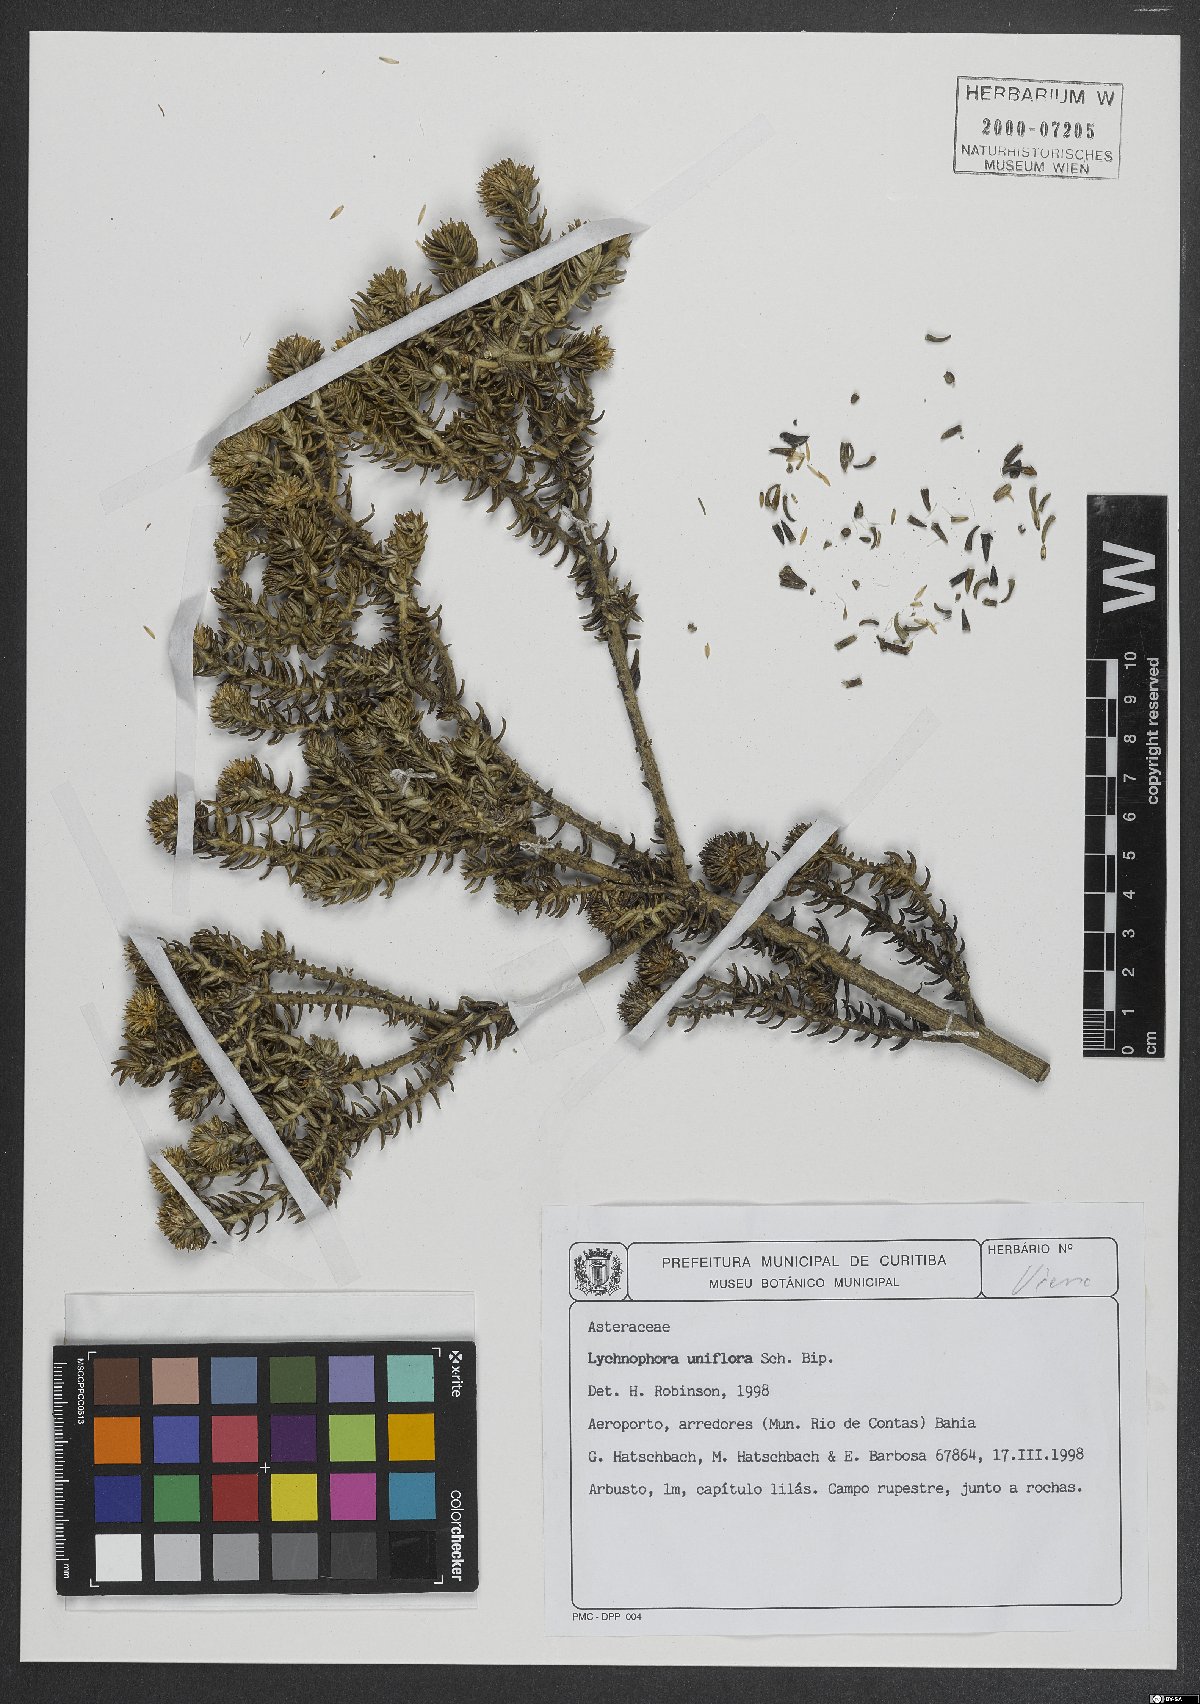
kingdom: Plantae
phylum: Tracheophyta
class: Magnoliopsida
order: Asterales
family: Asteraceae
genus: Lychnophora
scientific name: Lychnophora uniflora
